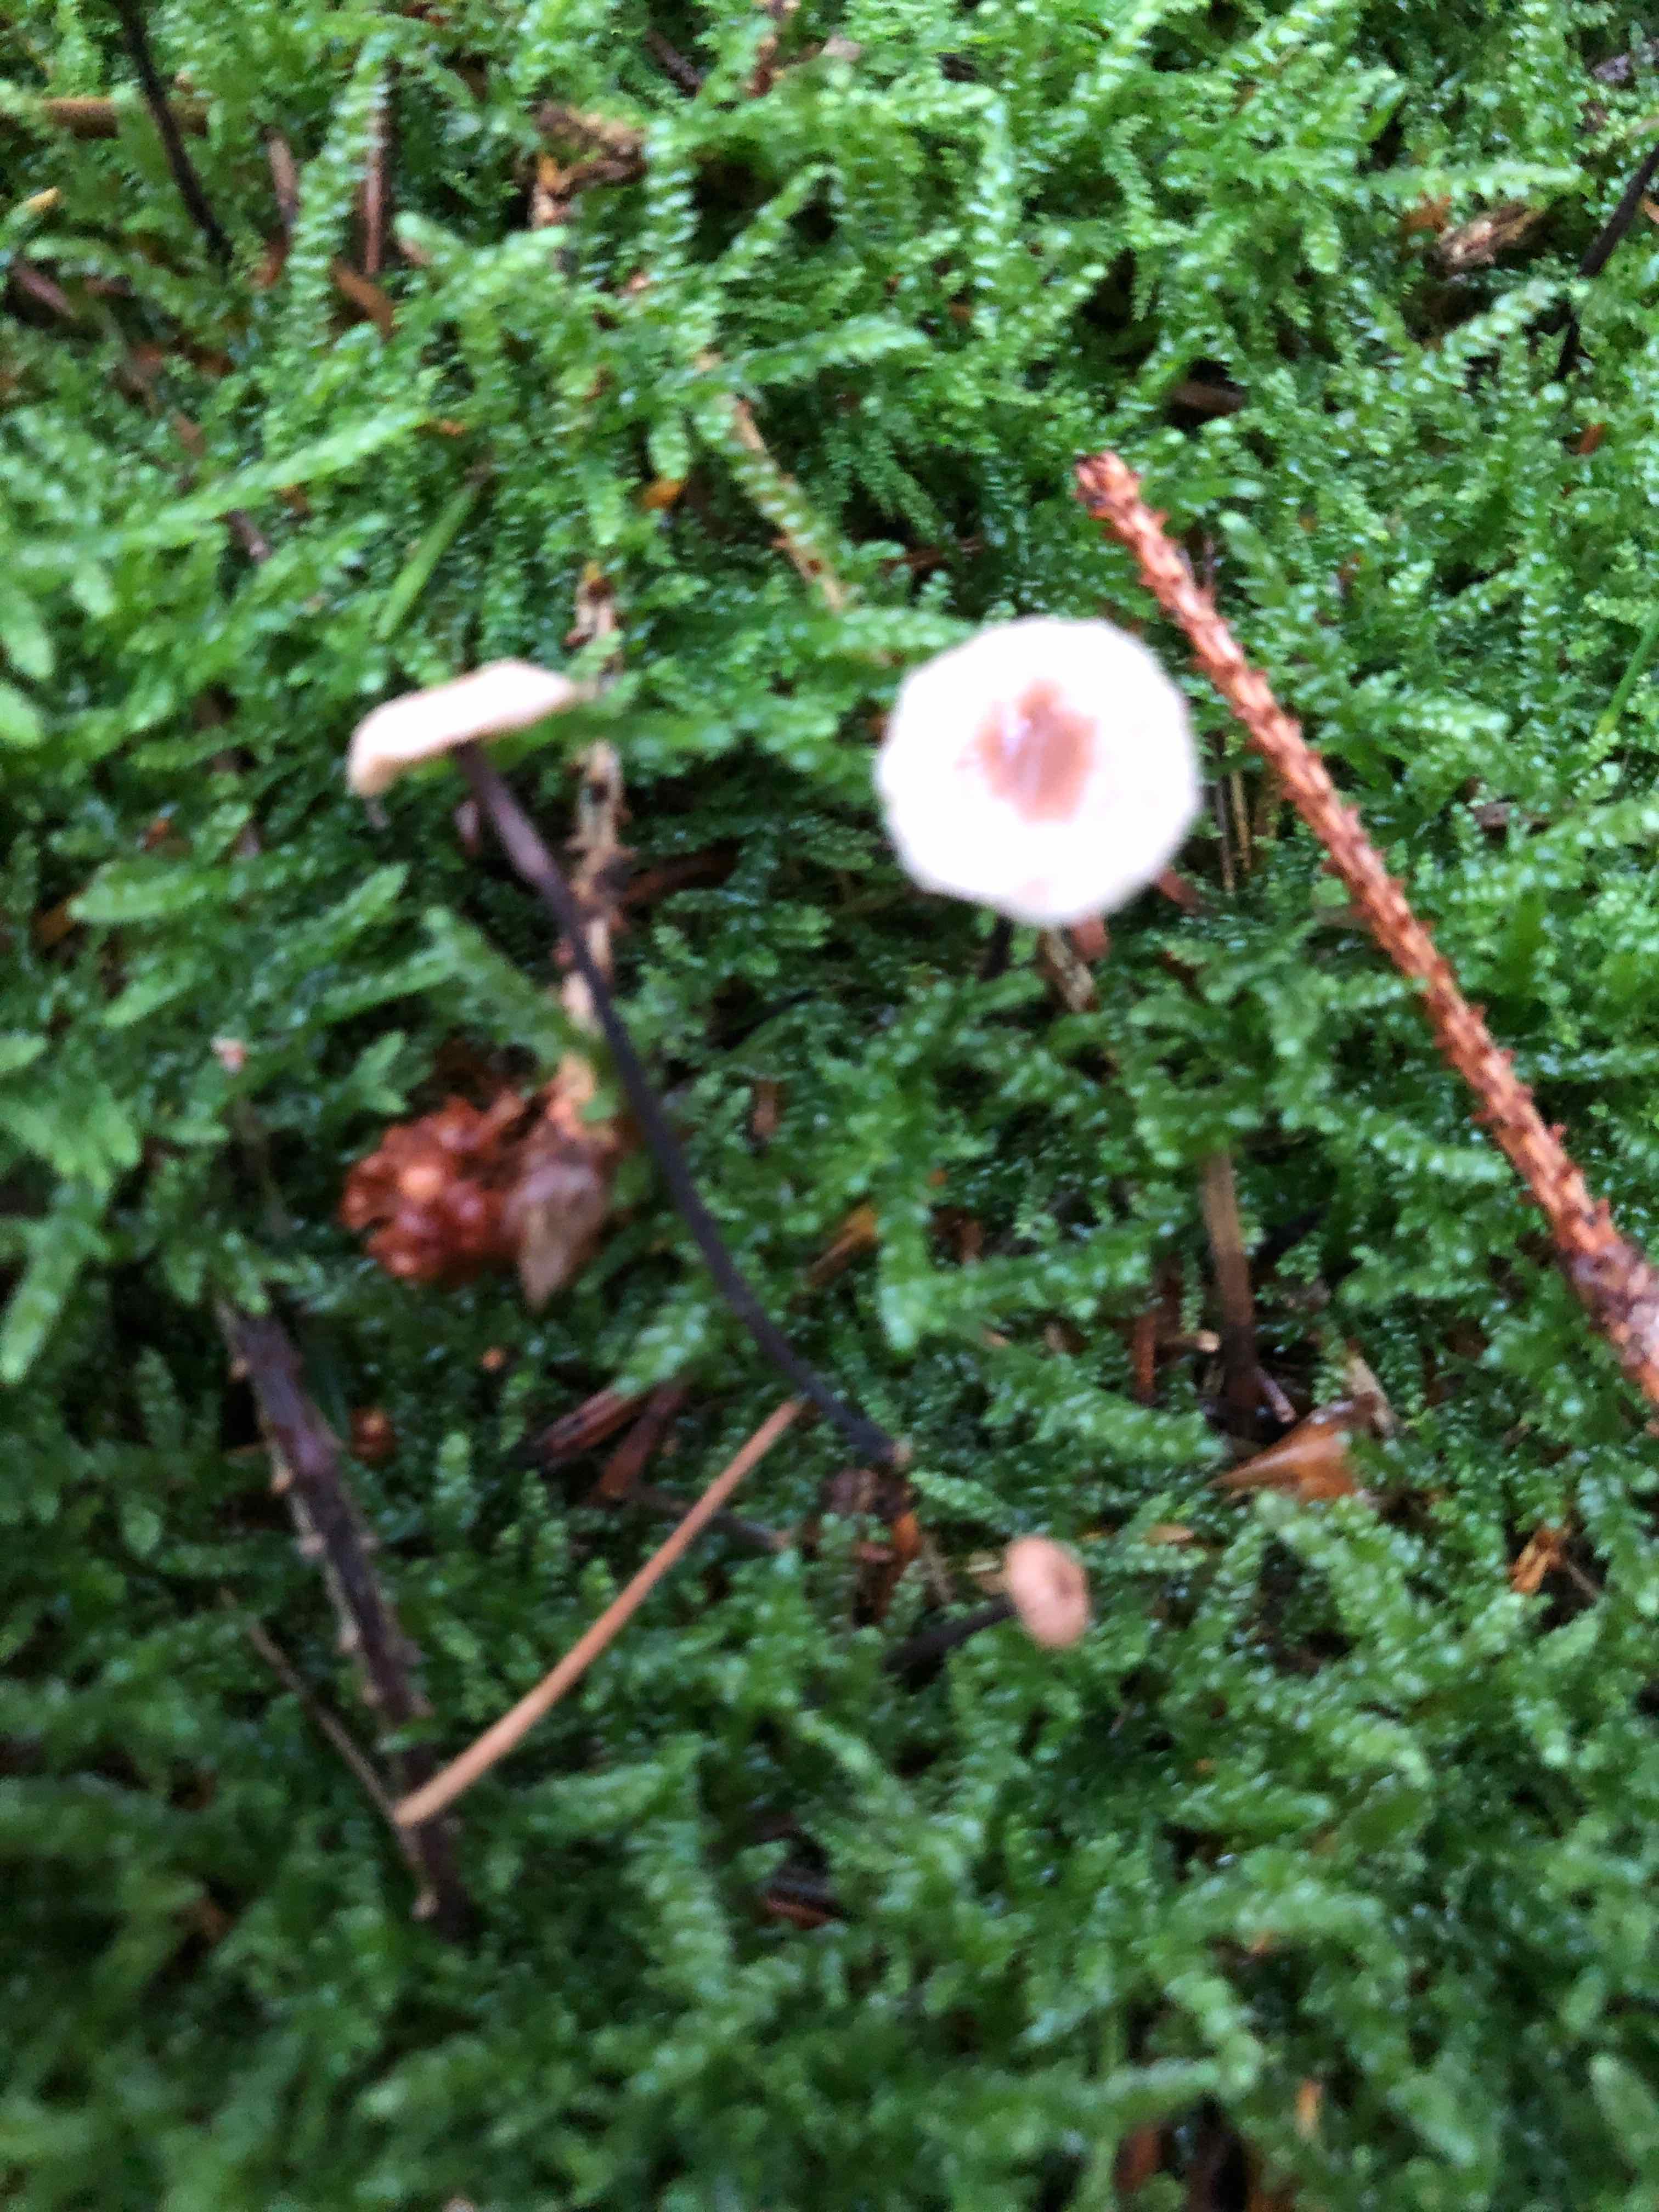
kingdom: Fungi
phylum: Basidiomycota
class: Agaricomycetes
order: Agaricales
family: Marasmiaceae
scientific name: Marasmiaceae
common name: bruskhatfamilien
